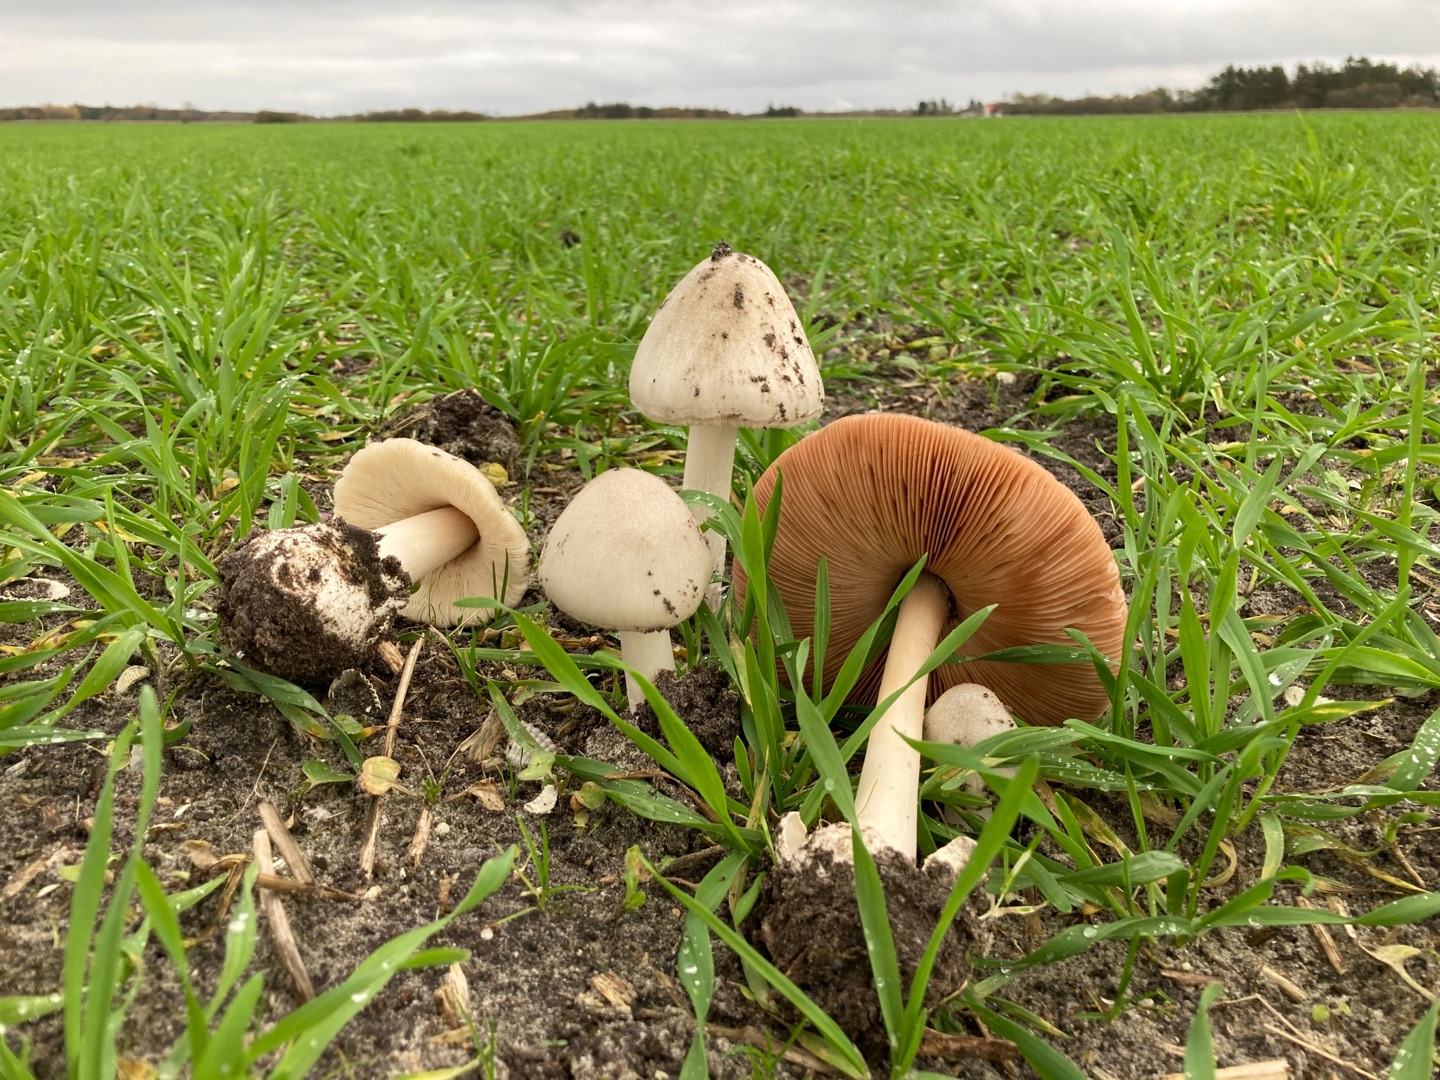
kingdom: Fungi
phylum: Basidiomycota
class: Agaricomycetes
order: Agaricales
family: Pluteaceae
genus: Volvopluteus
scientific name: Volvopluteus gloiocephalus
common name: Høj posesvamp
